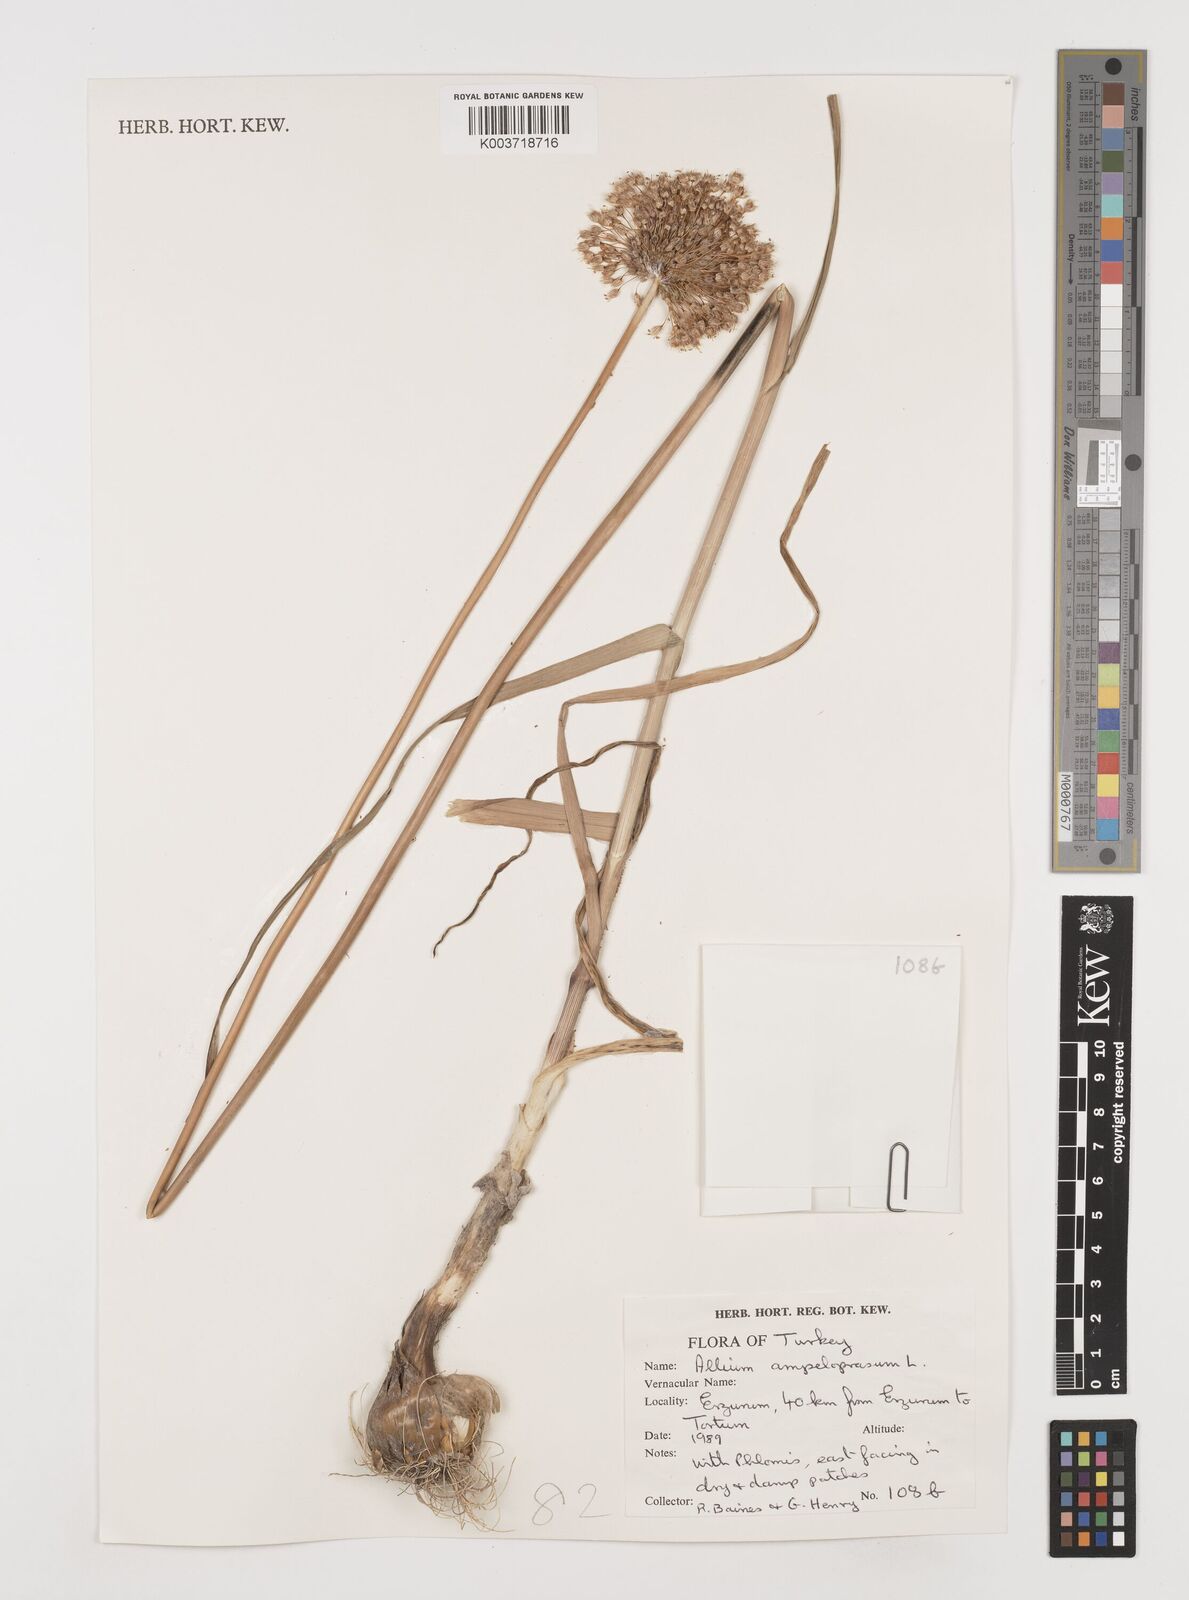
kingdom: Plantae
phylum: Tracheophyta
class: Liliopsida
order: Asparagales
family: Amaryllidaceae
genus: Allium
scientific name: Allium ampeloprasum
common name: Wild leek
